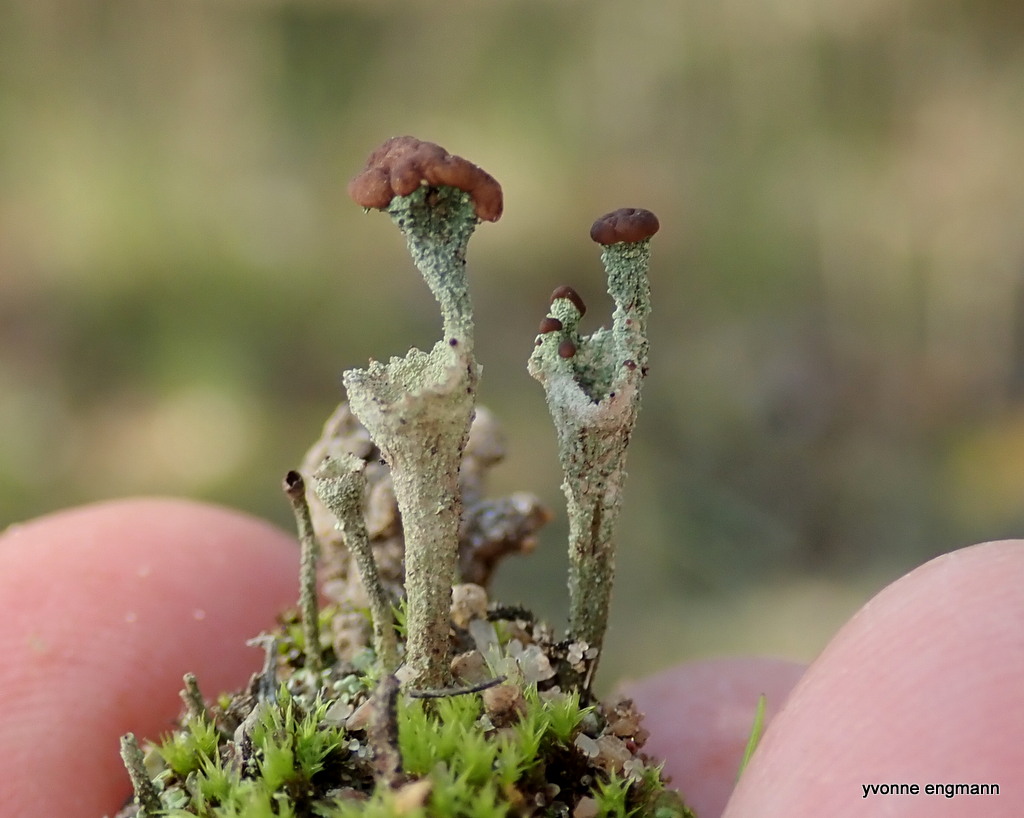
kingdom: Fungi
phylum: Ascomycota
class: Lecanoromycetes
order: Lecanorales
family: Cladoniaceae
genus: Cladonia
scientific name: Cladonia
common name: brungrøn bægerlav
